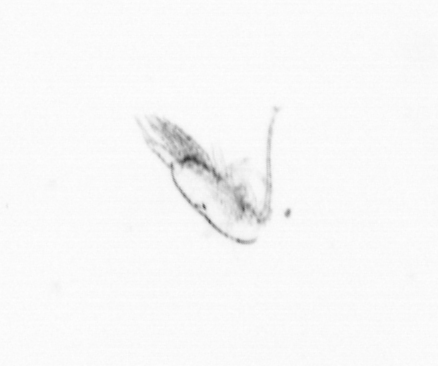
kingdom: Chromista
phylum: Ochrophyta
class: Bacillariophyceae
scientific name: Bacillariophyceae
